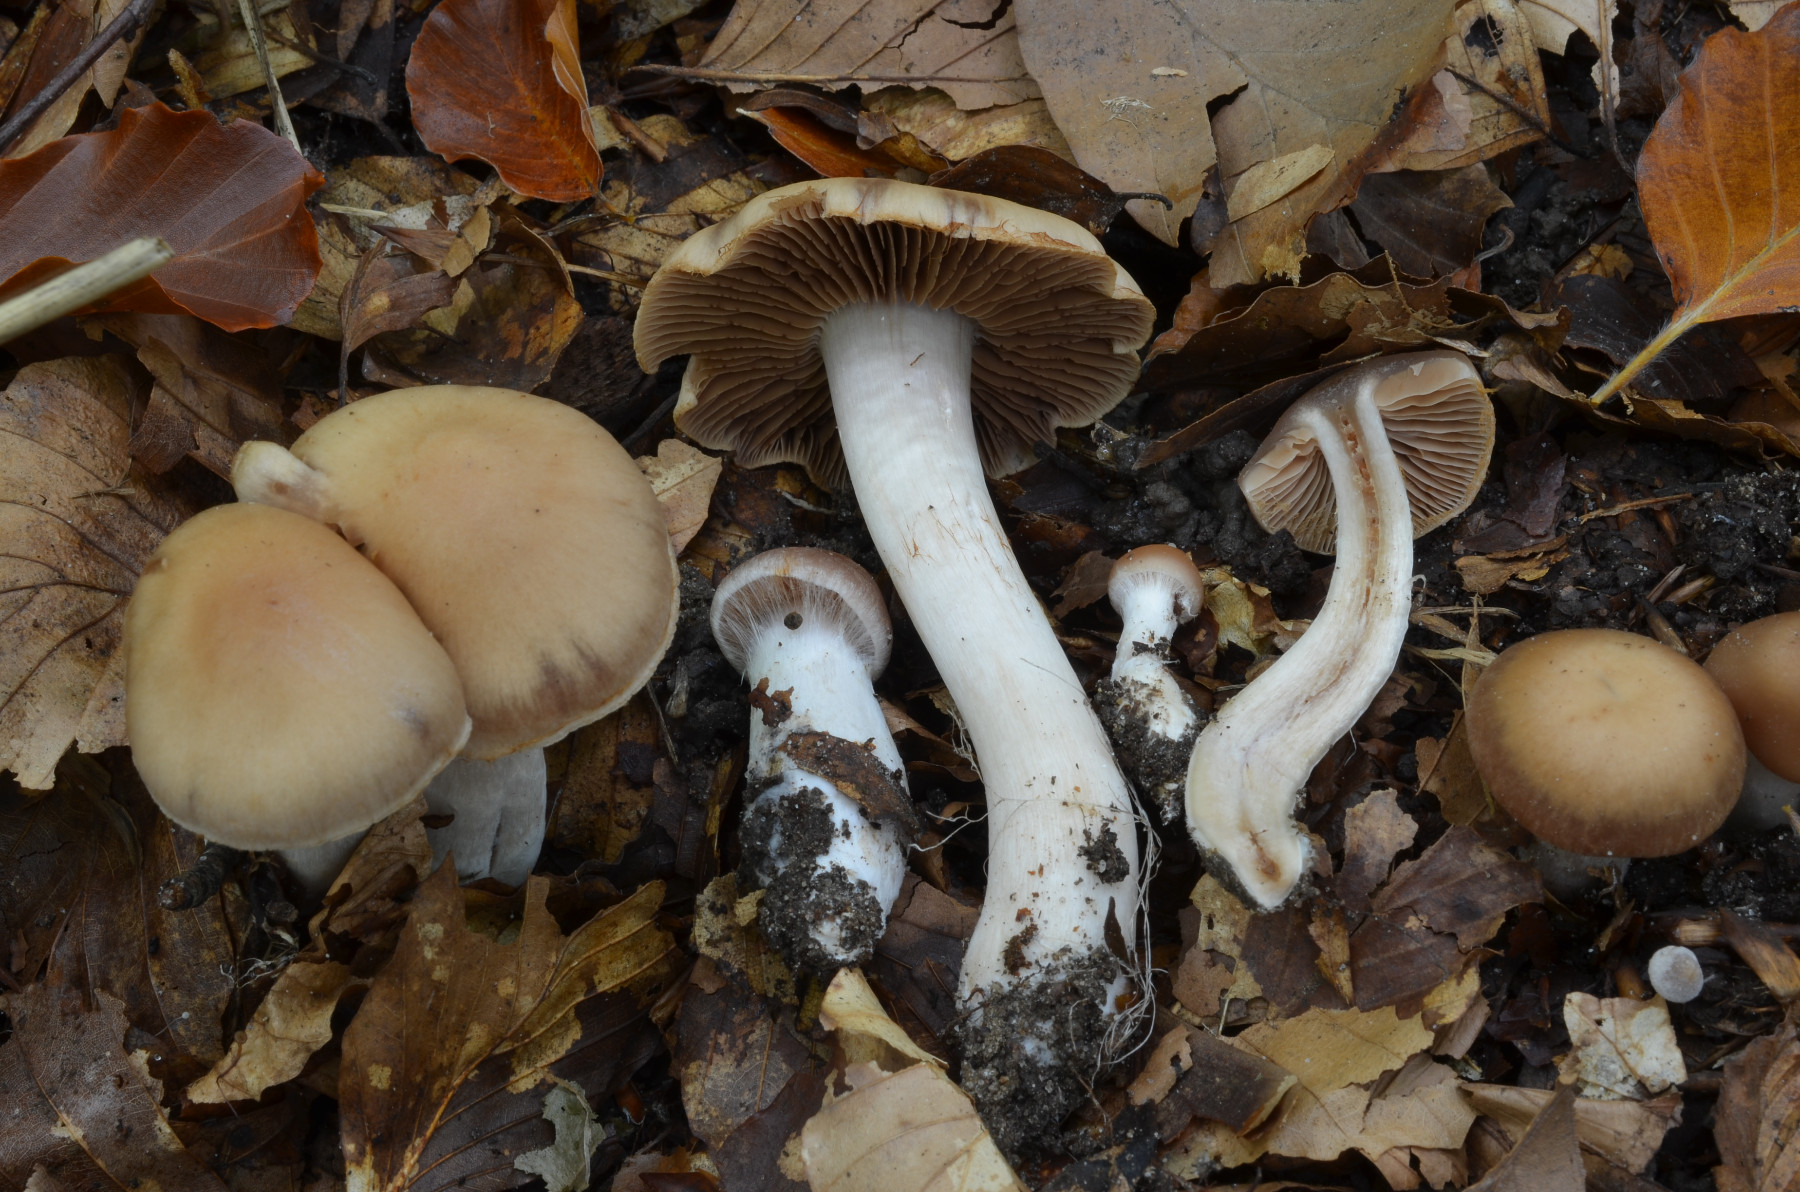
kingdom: Fungi
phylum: Basidiomycota
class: Agaricomycetes
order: Agaricales
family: Cortinariaceae
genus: Cortinarius
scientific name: Cortinarius iners
